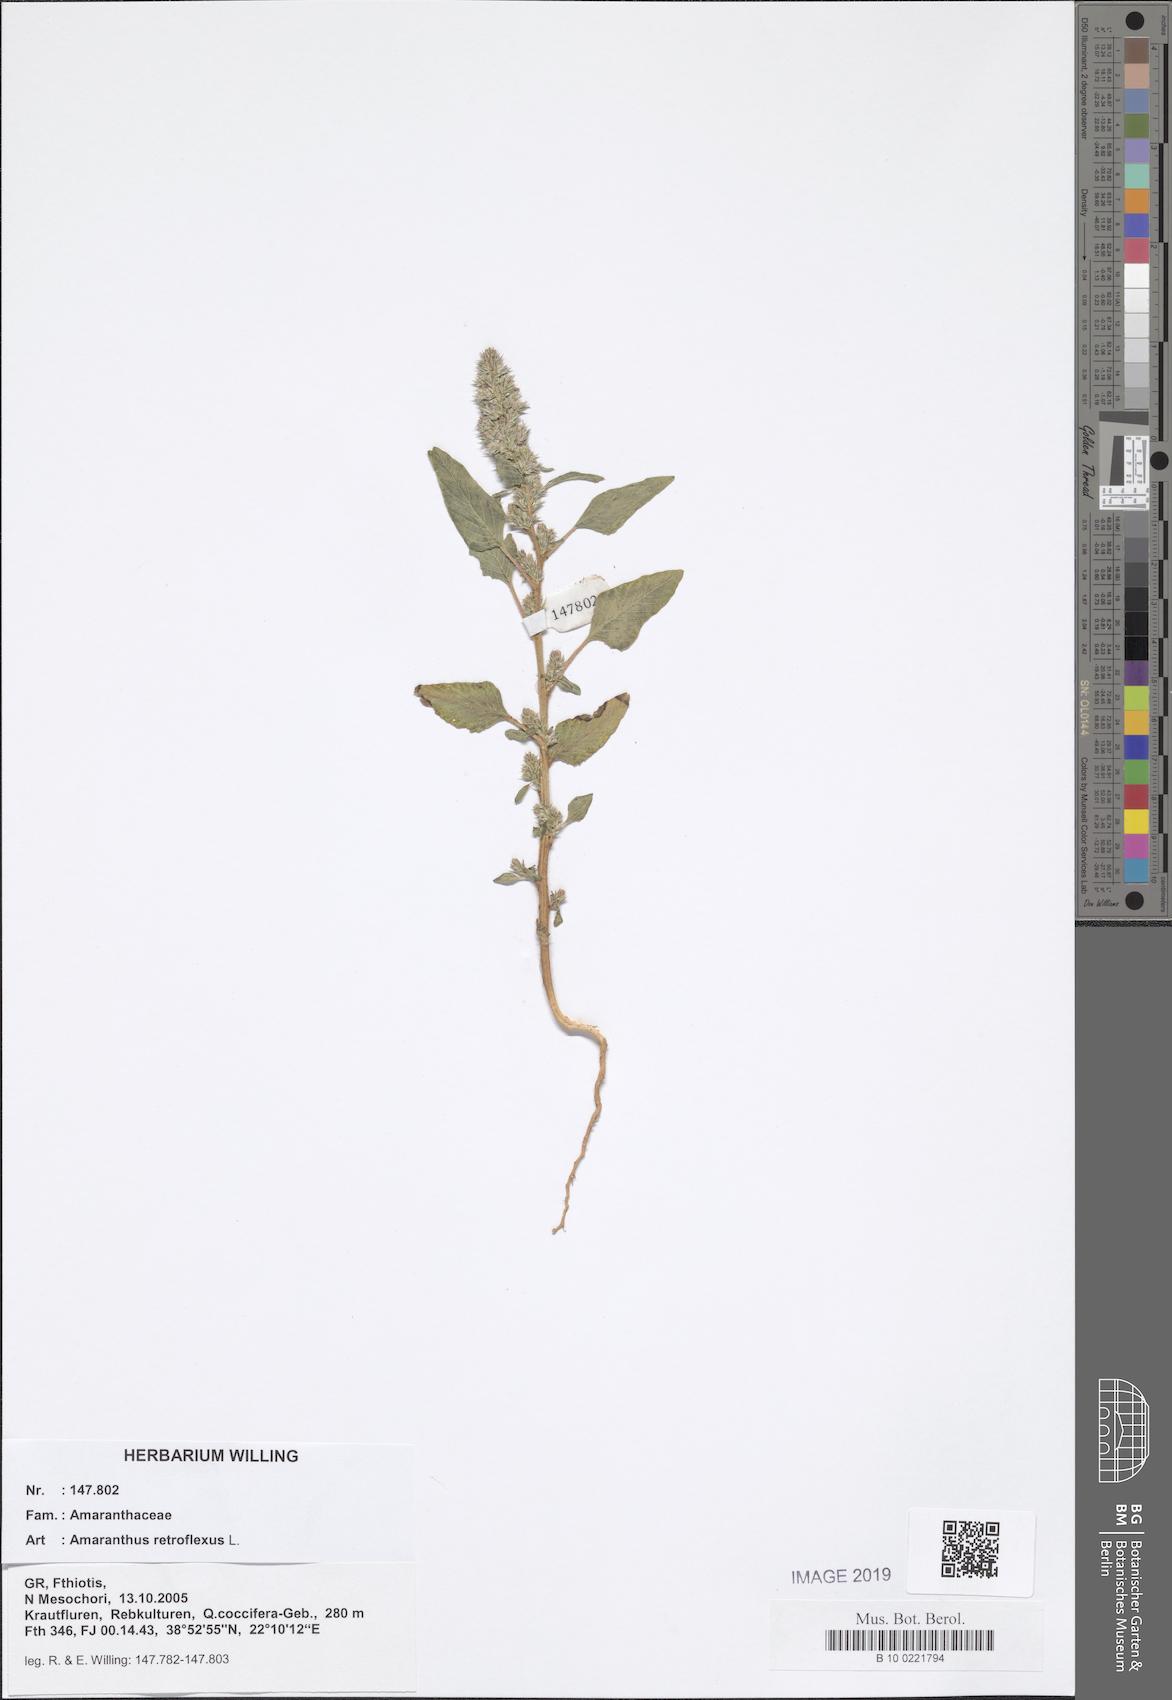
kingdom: Plantae
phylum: Tracheophyta
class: Magnoliopsida
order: Caryophyllales
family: Amaranthaceae
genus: Amaranthus
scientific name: Amaranthus retroflexus
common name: Redroot amaranth
